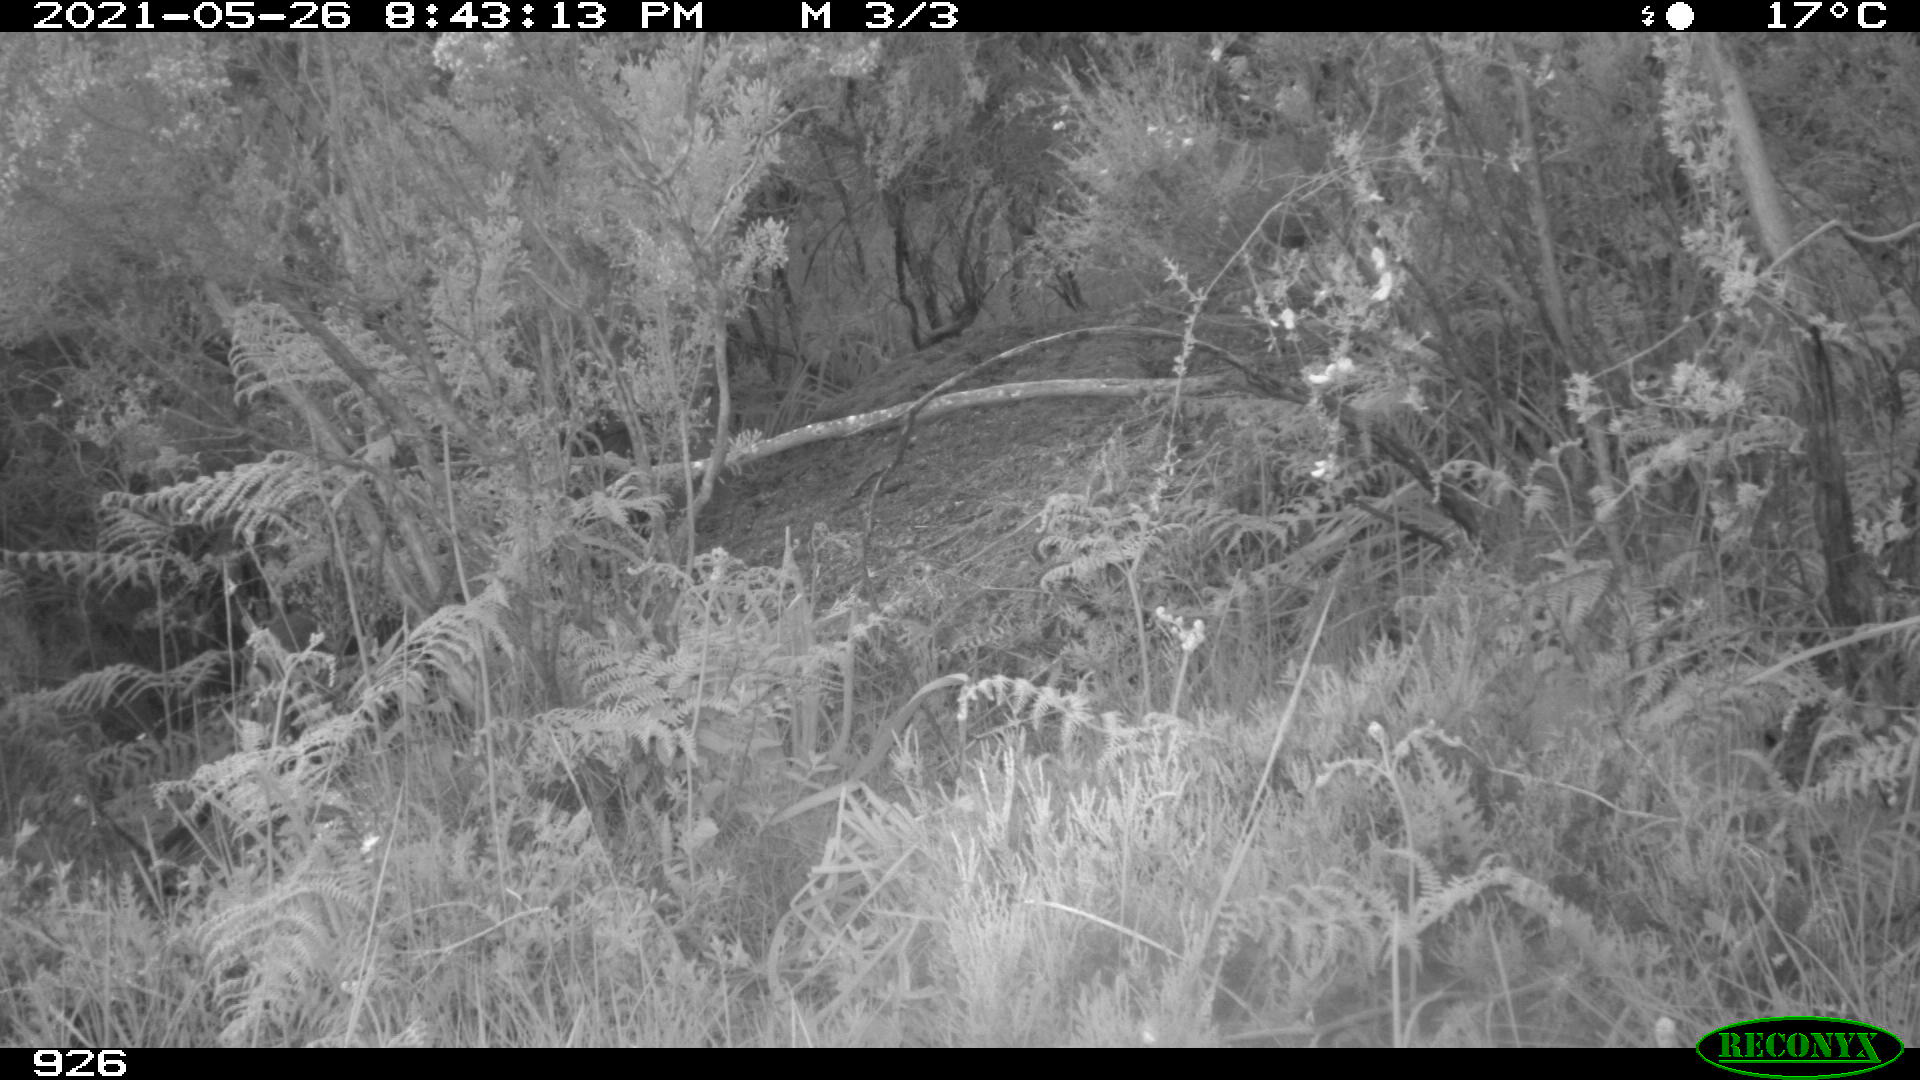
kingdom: Animalia
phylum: Chordata
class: Mammalia
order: Artiodactyla
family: Cervidae
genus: Capreolus
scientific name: Capreolus capreolus
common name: Western roe deer
